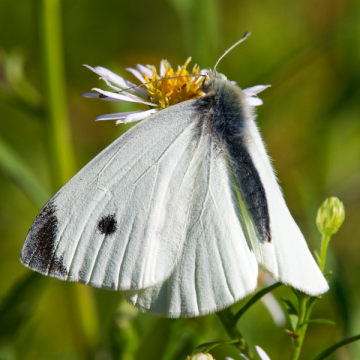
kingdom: Animalia
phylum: Arthropoda
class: Insecta
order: Lepidoptera
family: Pieridae
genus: Pieris
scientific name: Pieris rapae
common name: Cabbage White
